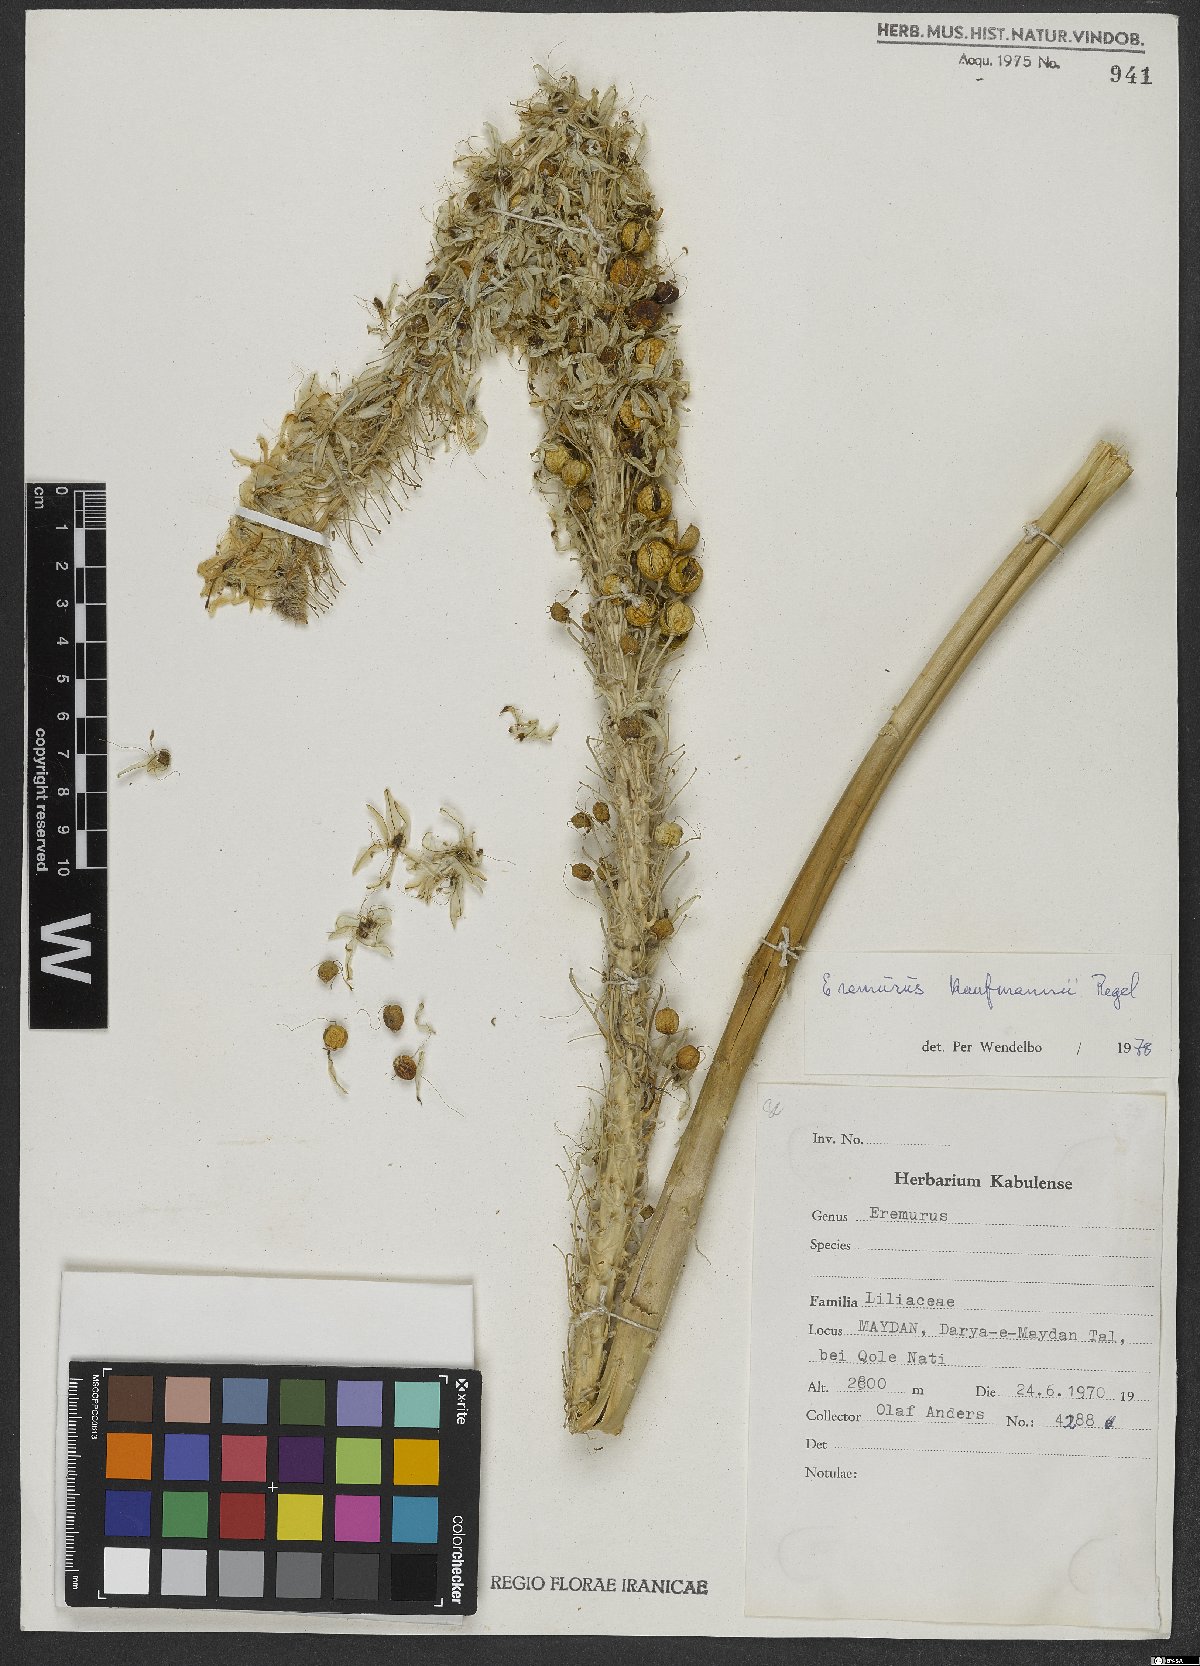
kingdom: Plantae
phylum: Tracheophyta
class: Liliopsida
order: Asparagales
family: Asphodelaceae
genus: Eremurus
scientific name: Eremurus kaufmannii
